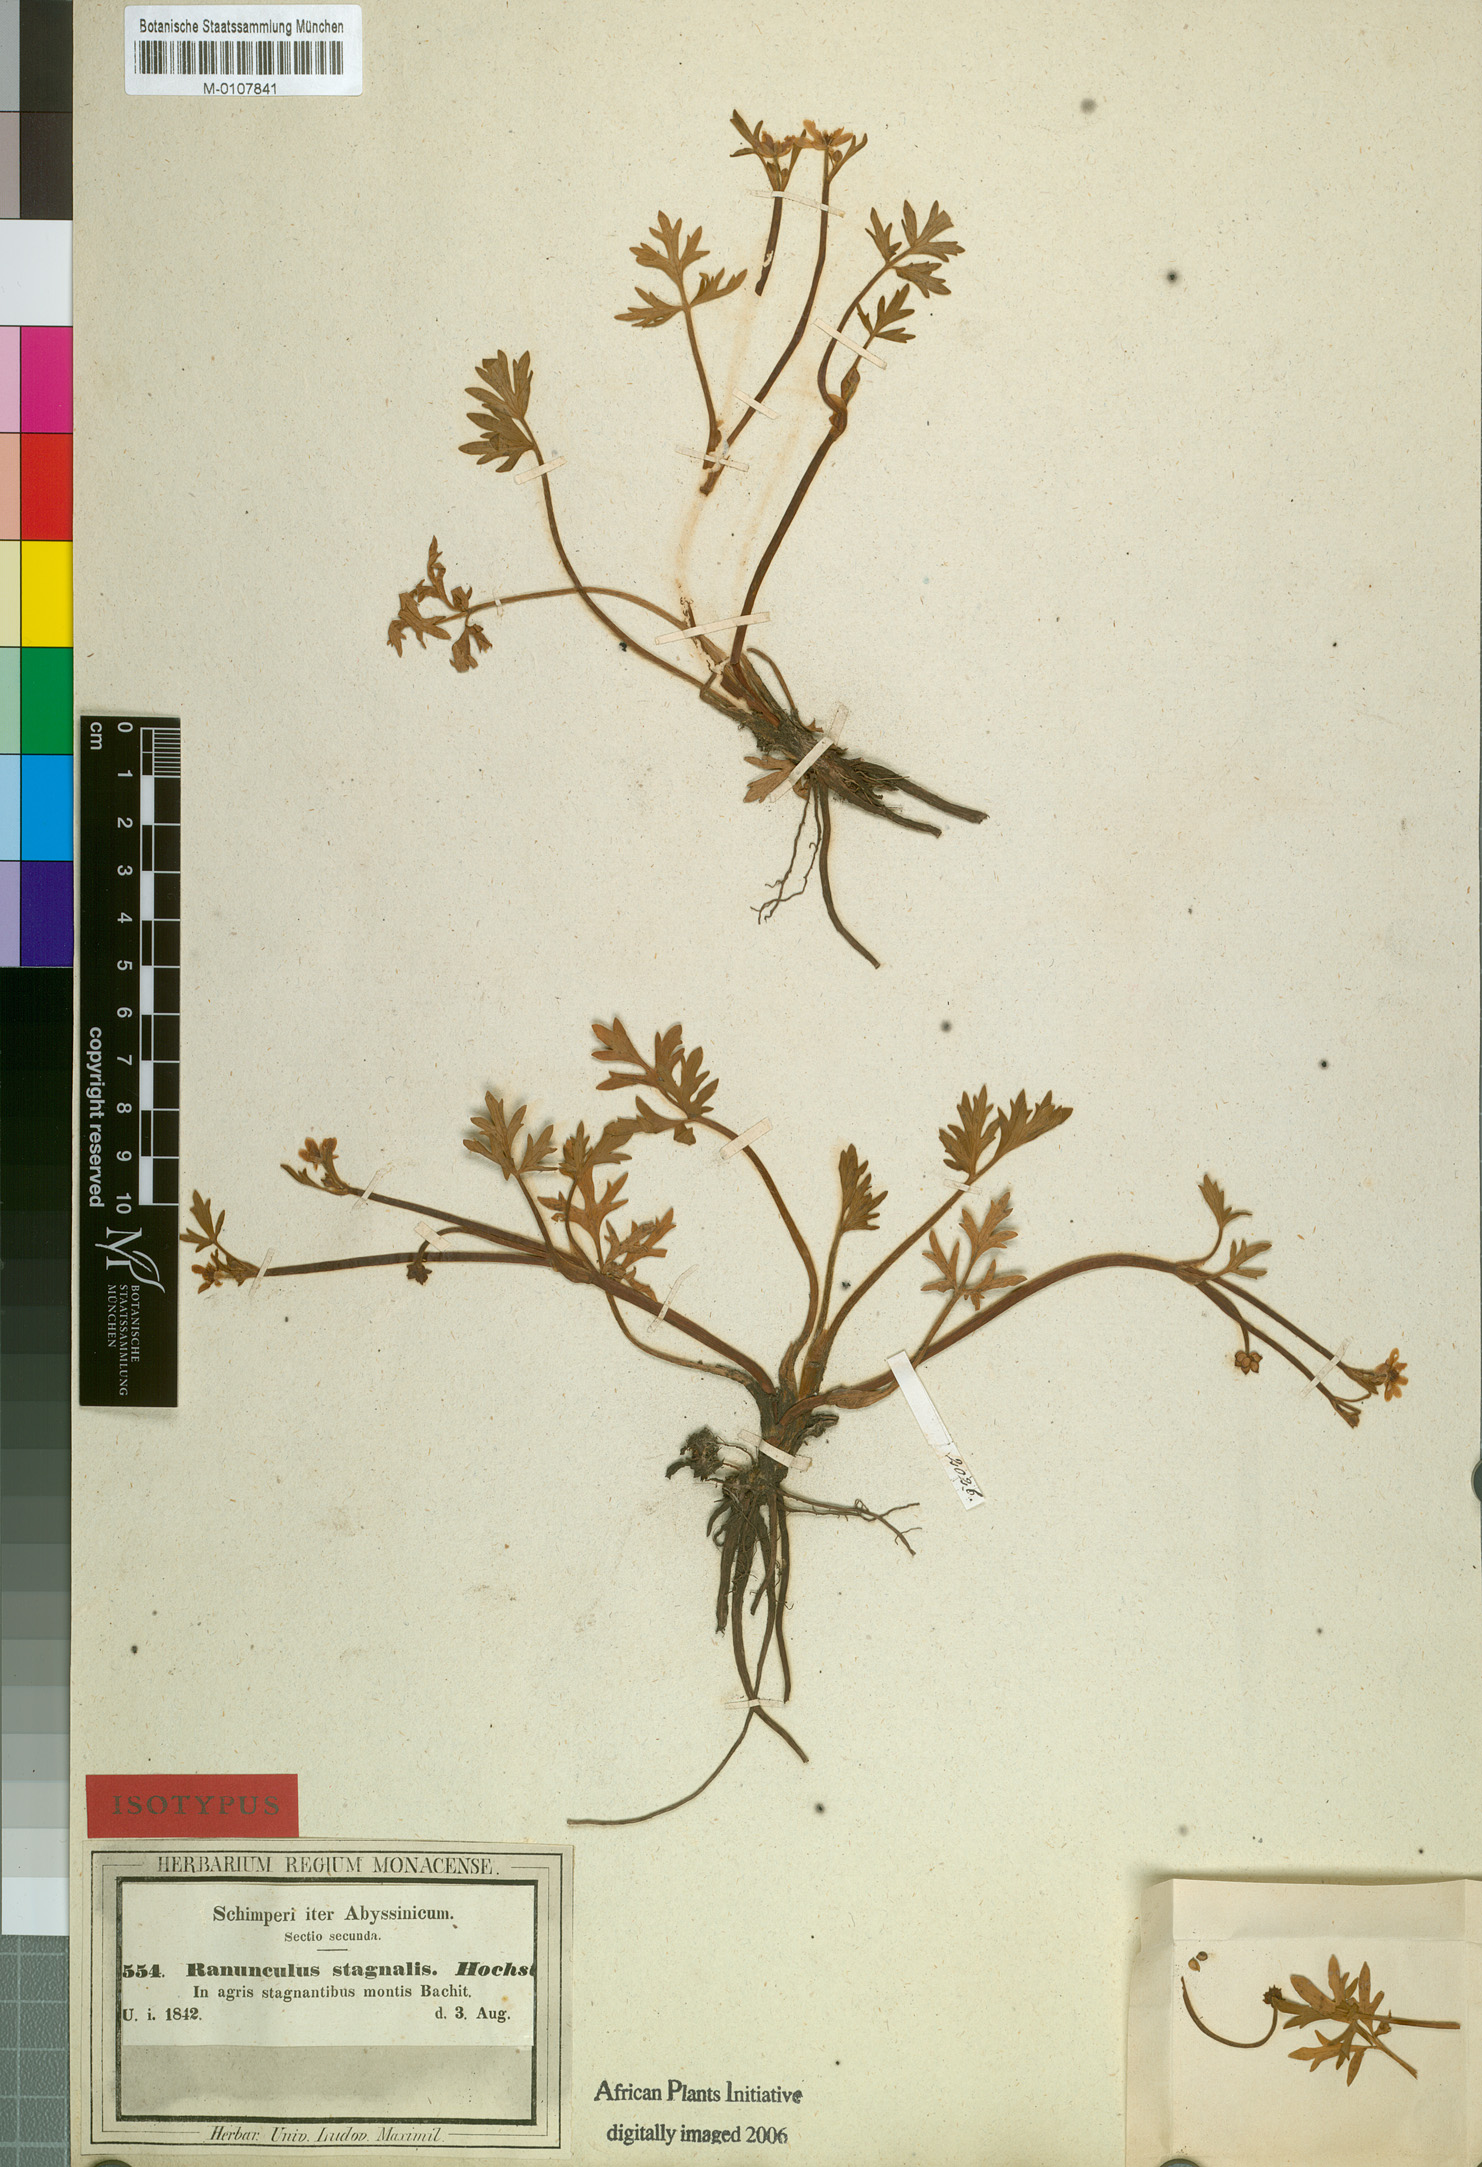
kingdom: Plantae
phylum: Tracheophyta
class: Magnoliopsida
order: Ranunculales
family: Ranunculaceae
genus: Ranunculus
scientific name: Ranunculus stagnalis
